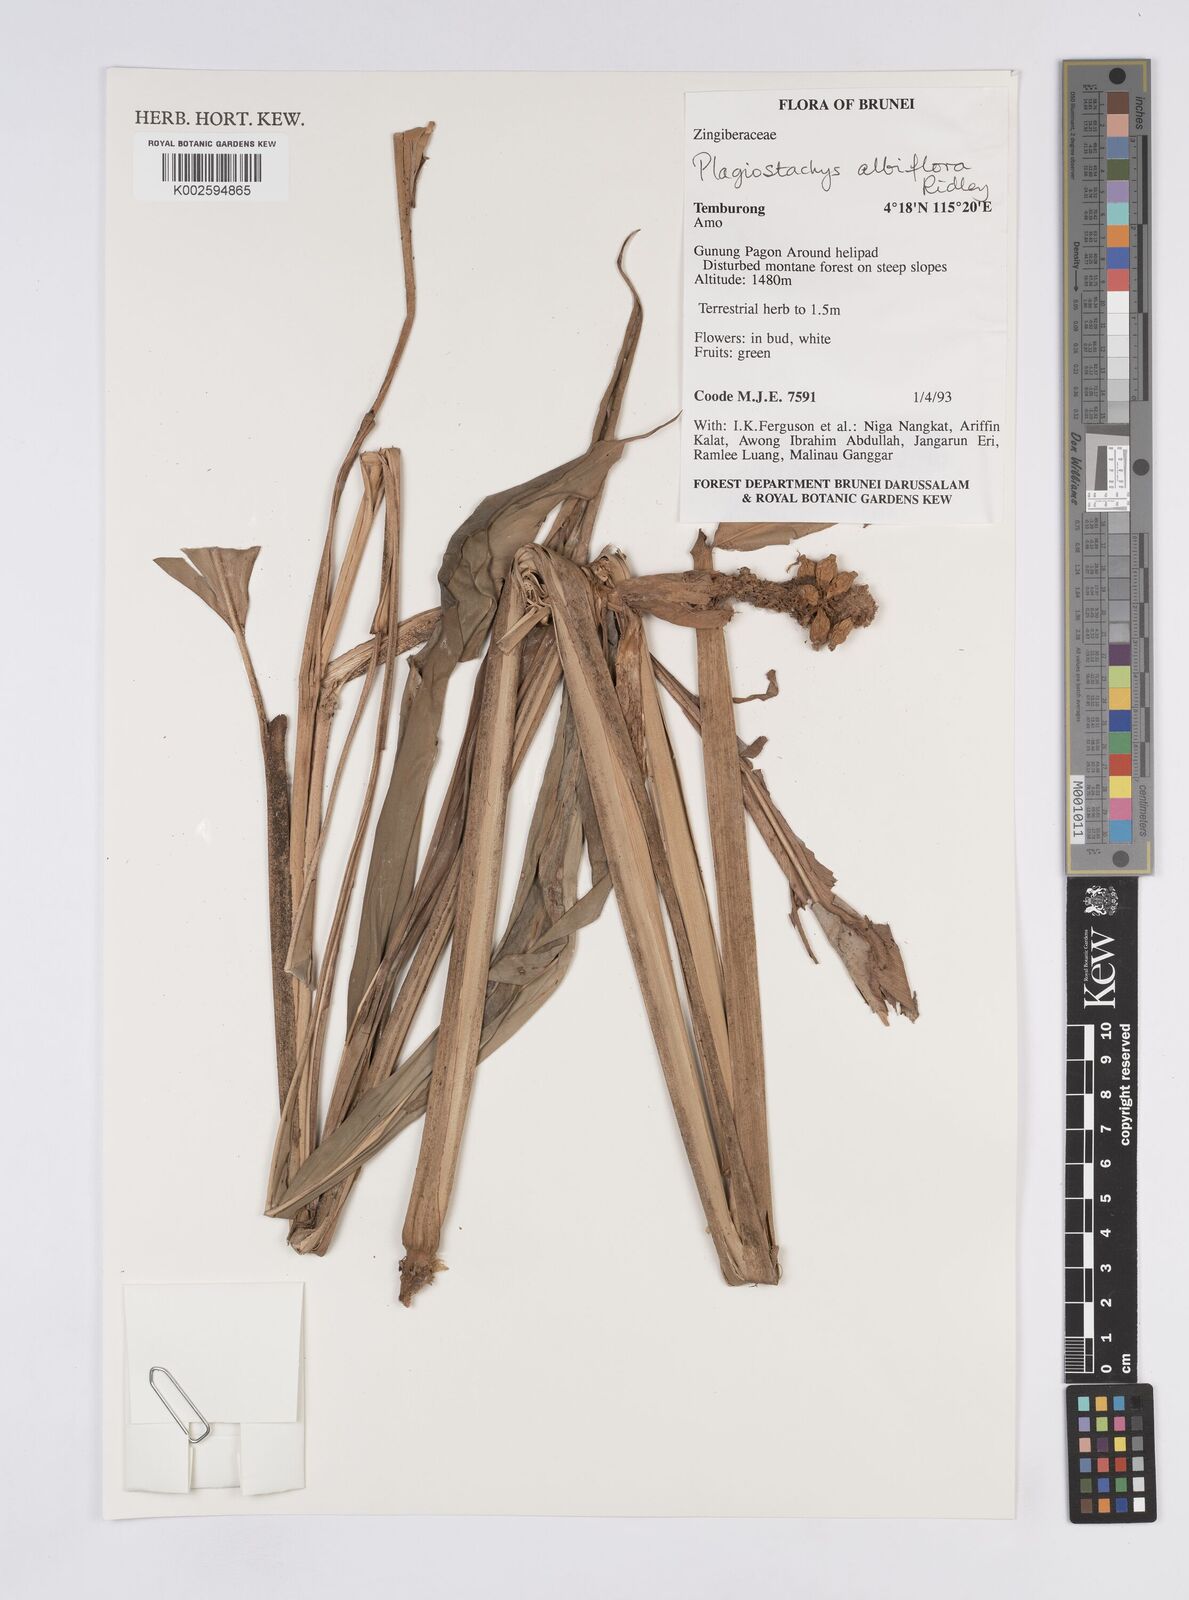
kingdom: Plantae
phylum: Tracheophyta
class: Liliopsida
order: Zingiberales
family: Zingiberaceae
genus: Plagiostachys
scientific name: Plagiostachys albiflora
